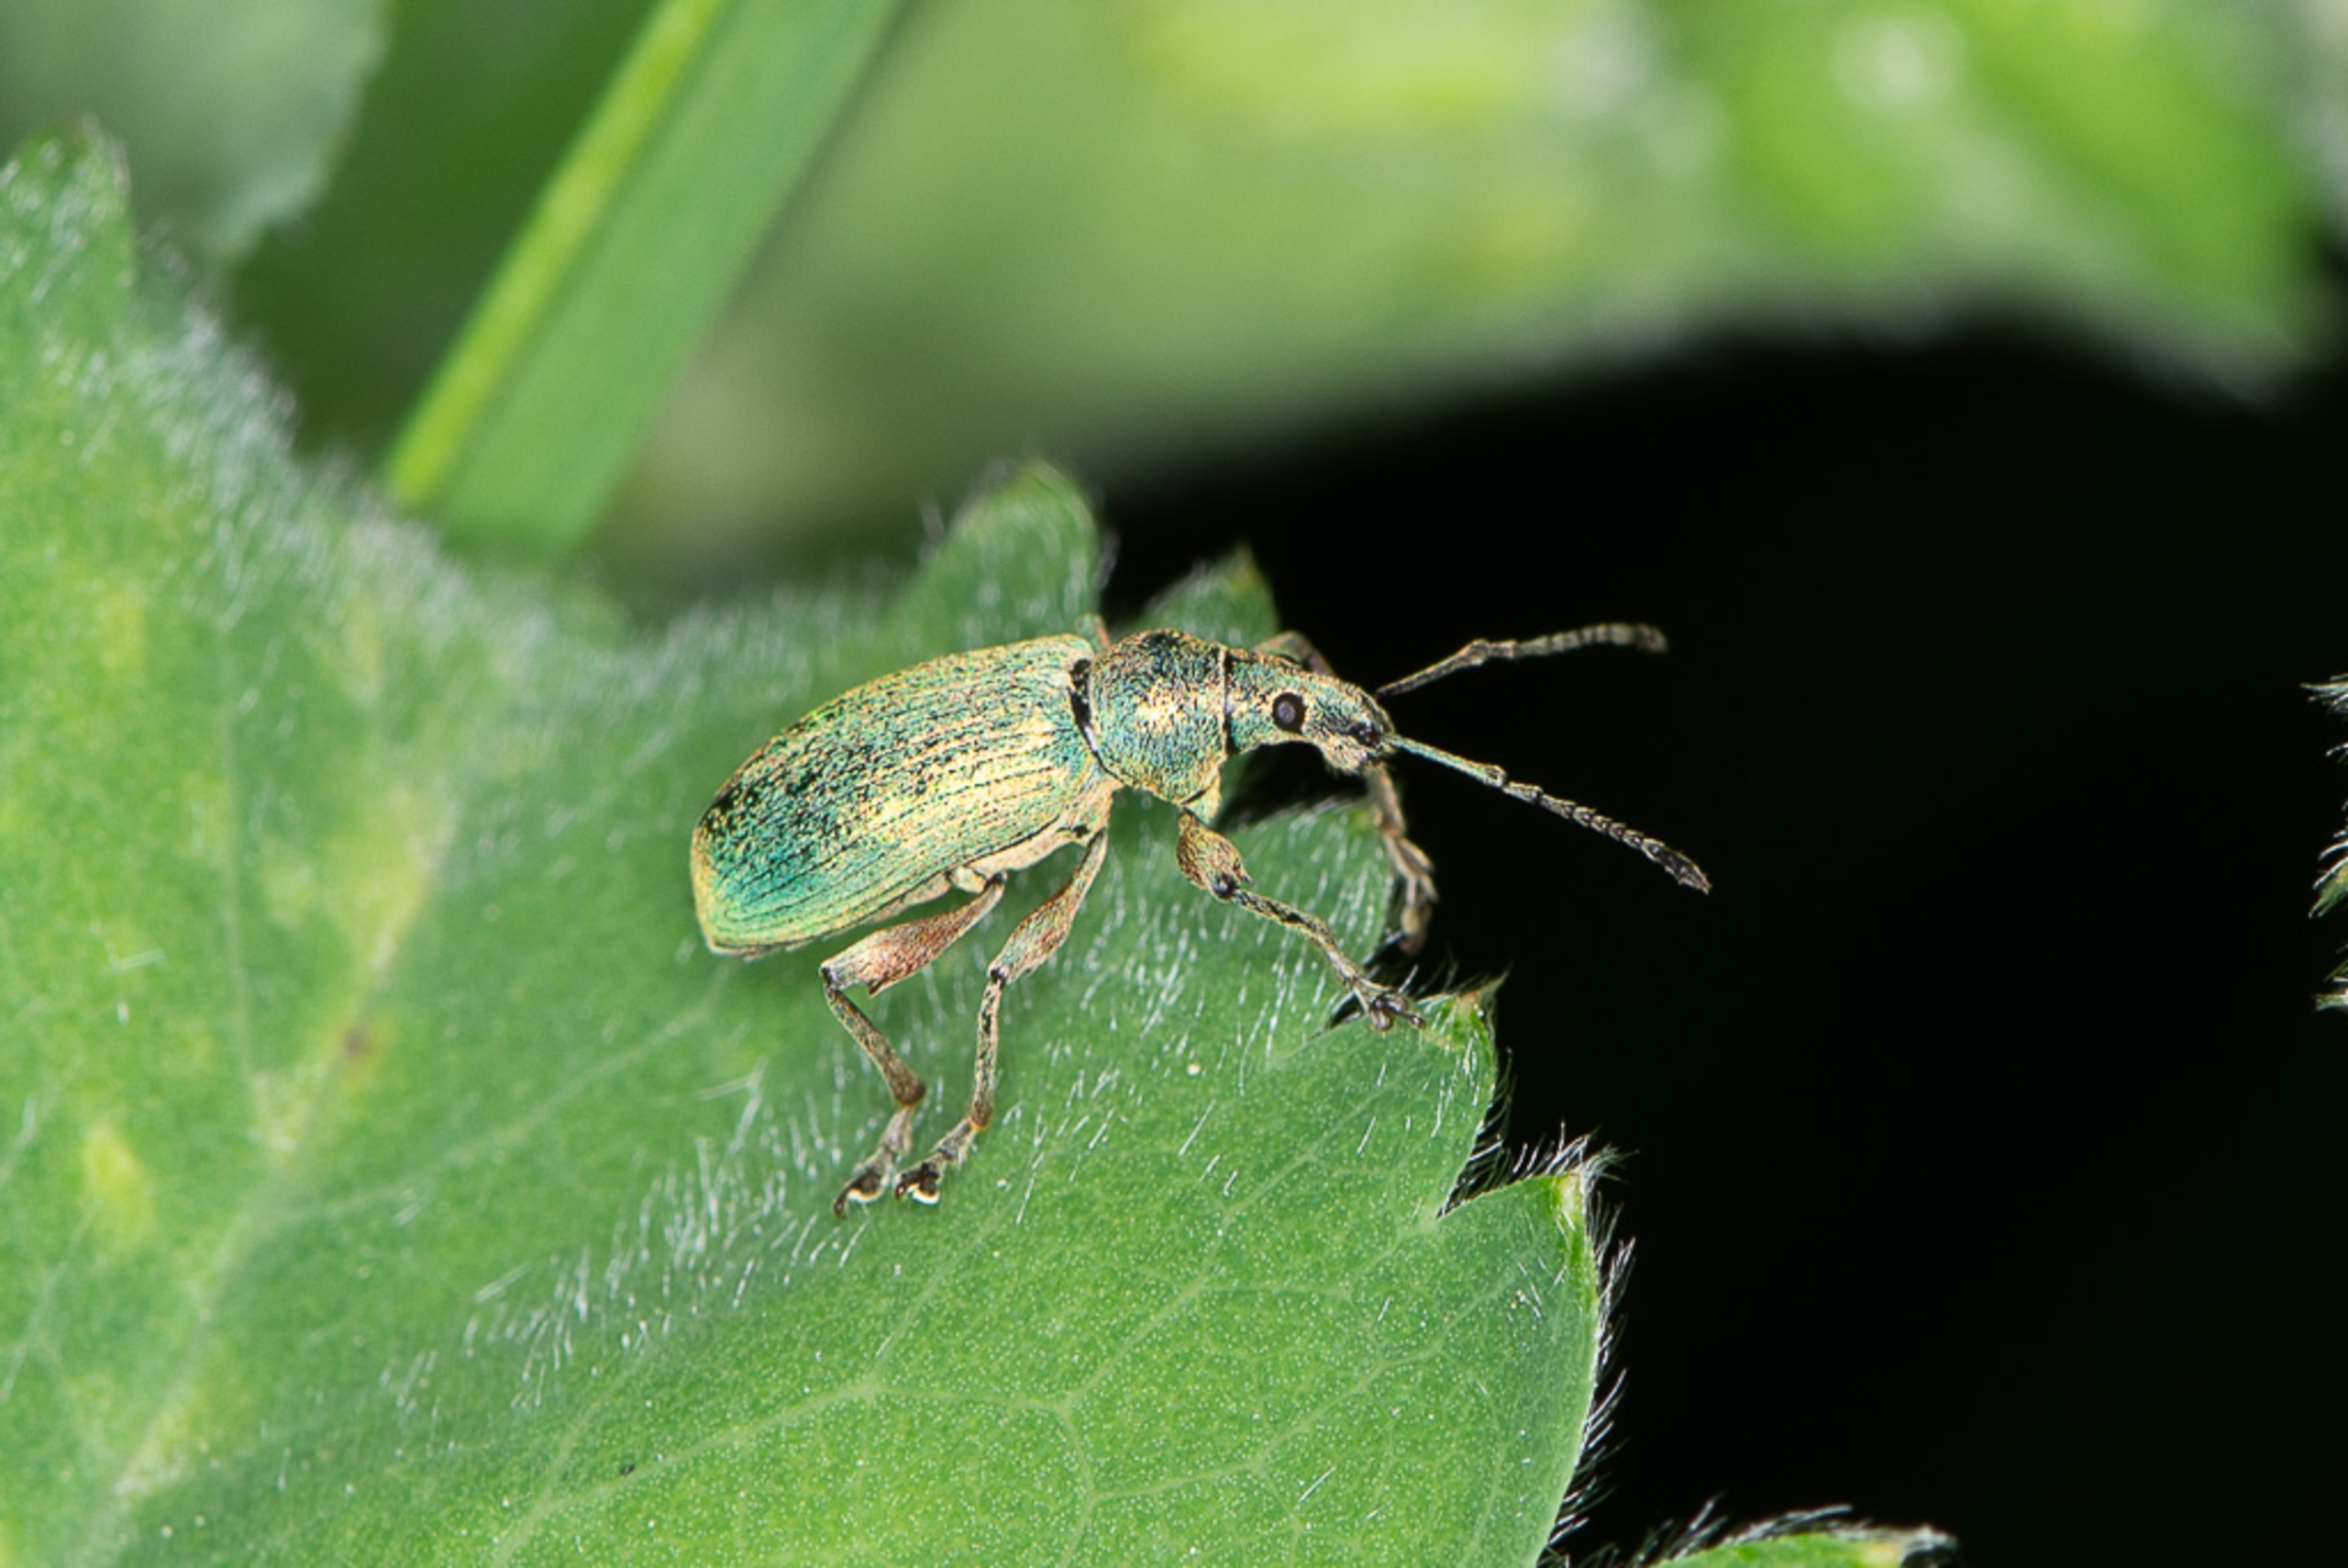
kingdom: Animalia
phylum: Arthropoda
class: Insecta
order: Coleoptera
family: Curculionidae
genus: Phyllobius
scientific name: Phyllobius pomaceus
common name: Nældesnudebille
